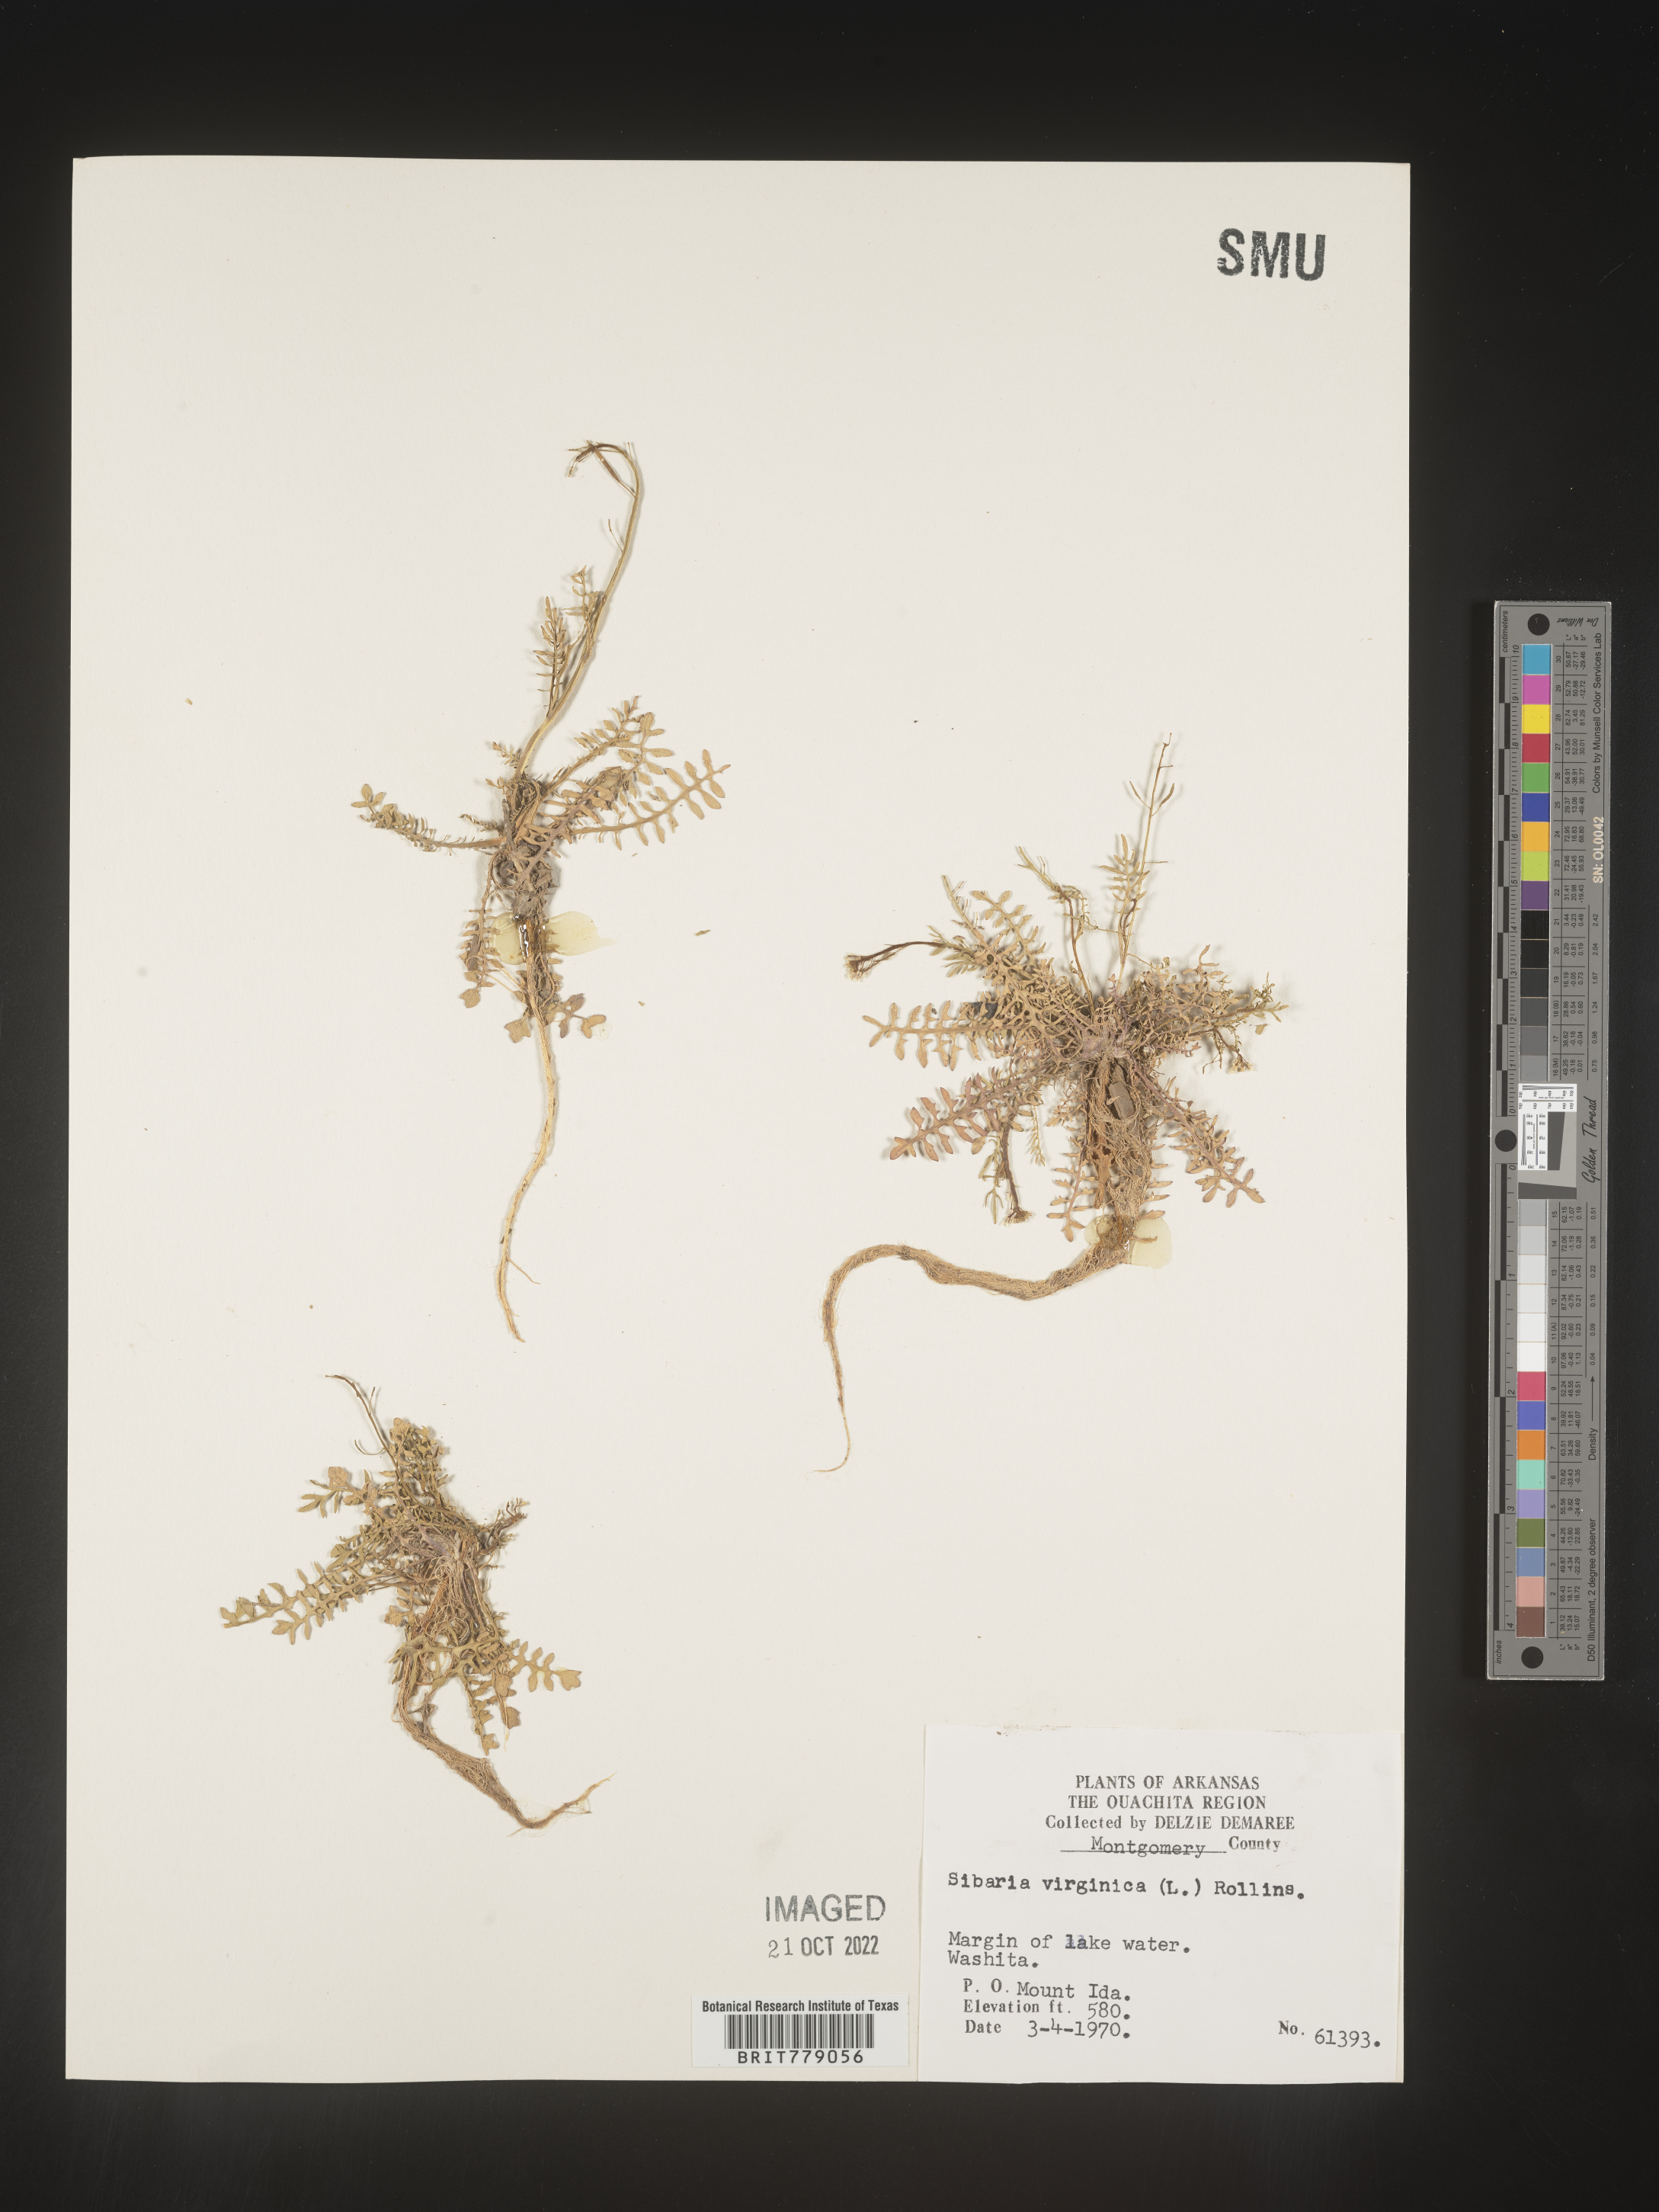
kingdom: Plantae
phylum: Tracheophyta
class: Magnoliopsida
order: Brassicales
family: Brassicaceae
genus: Sibara
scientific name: Sibara
